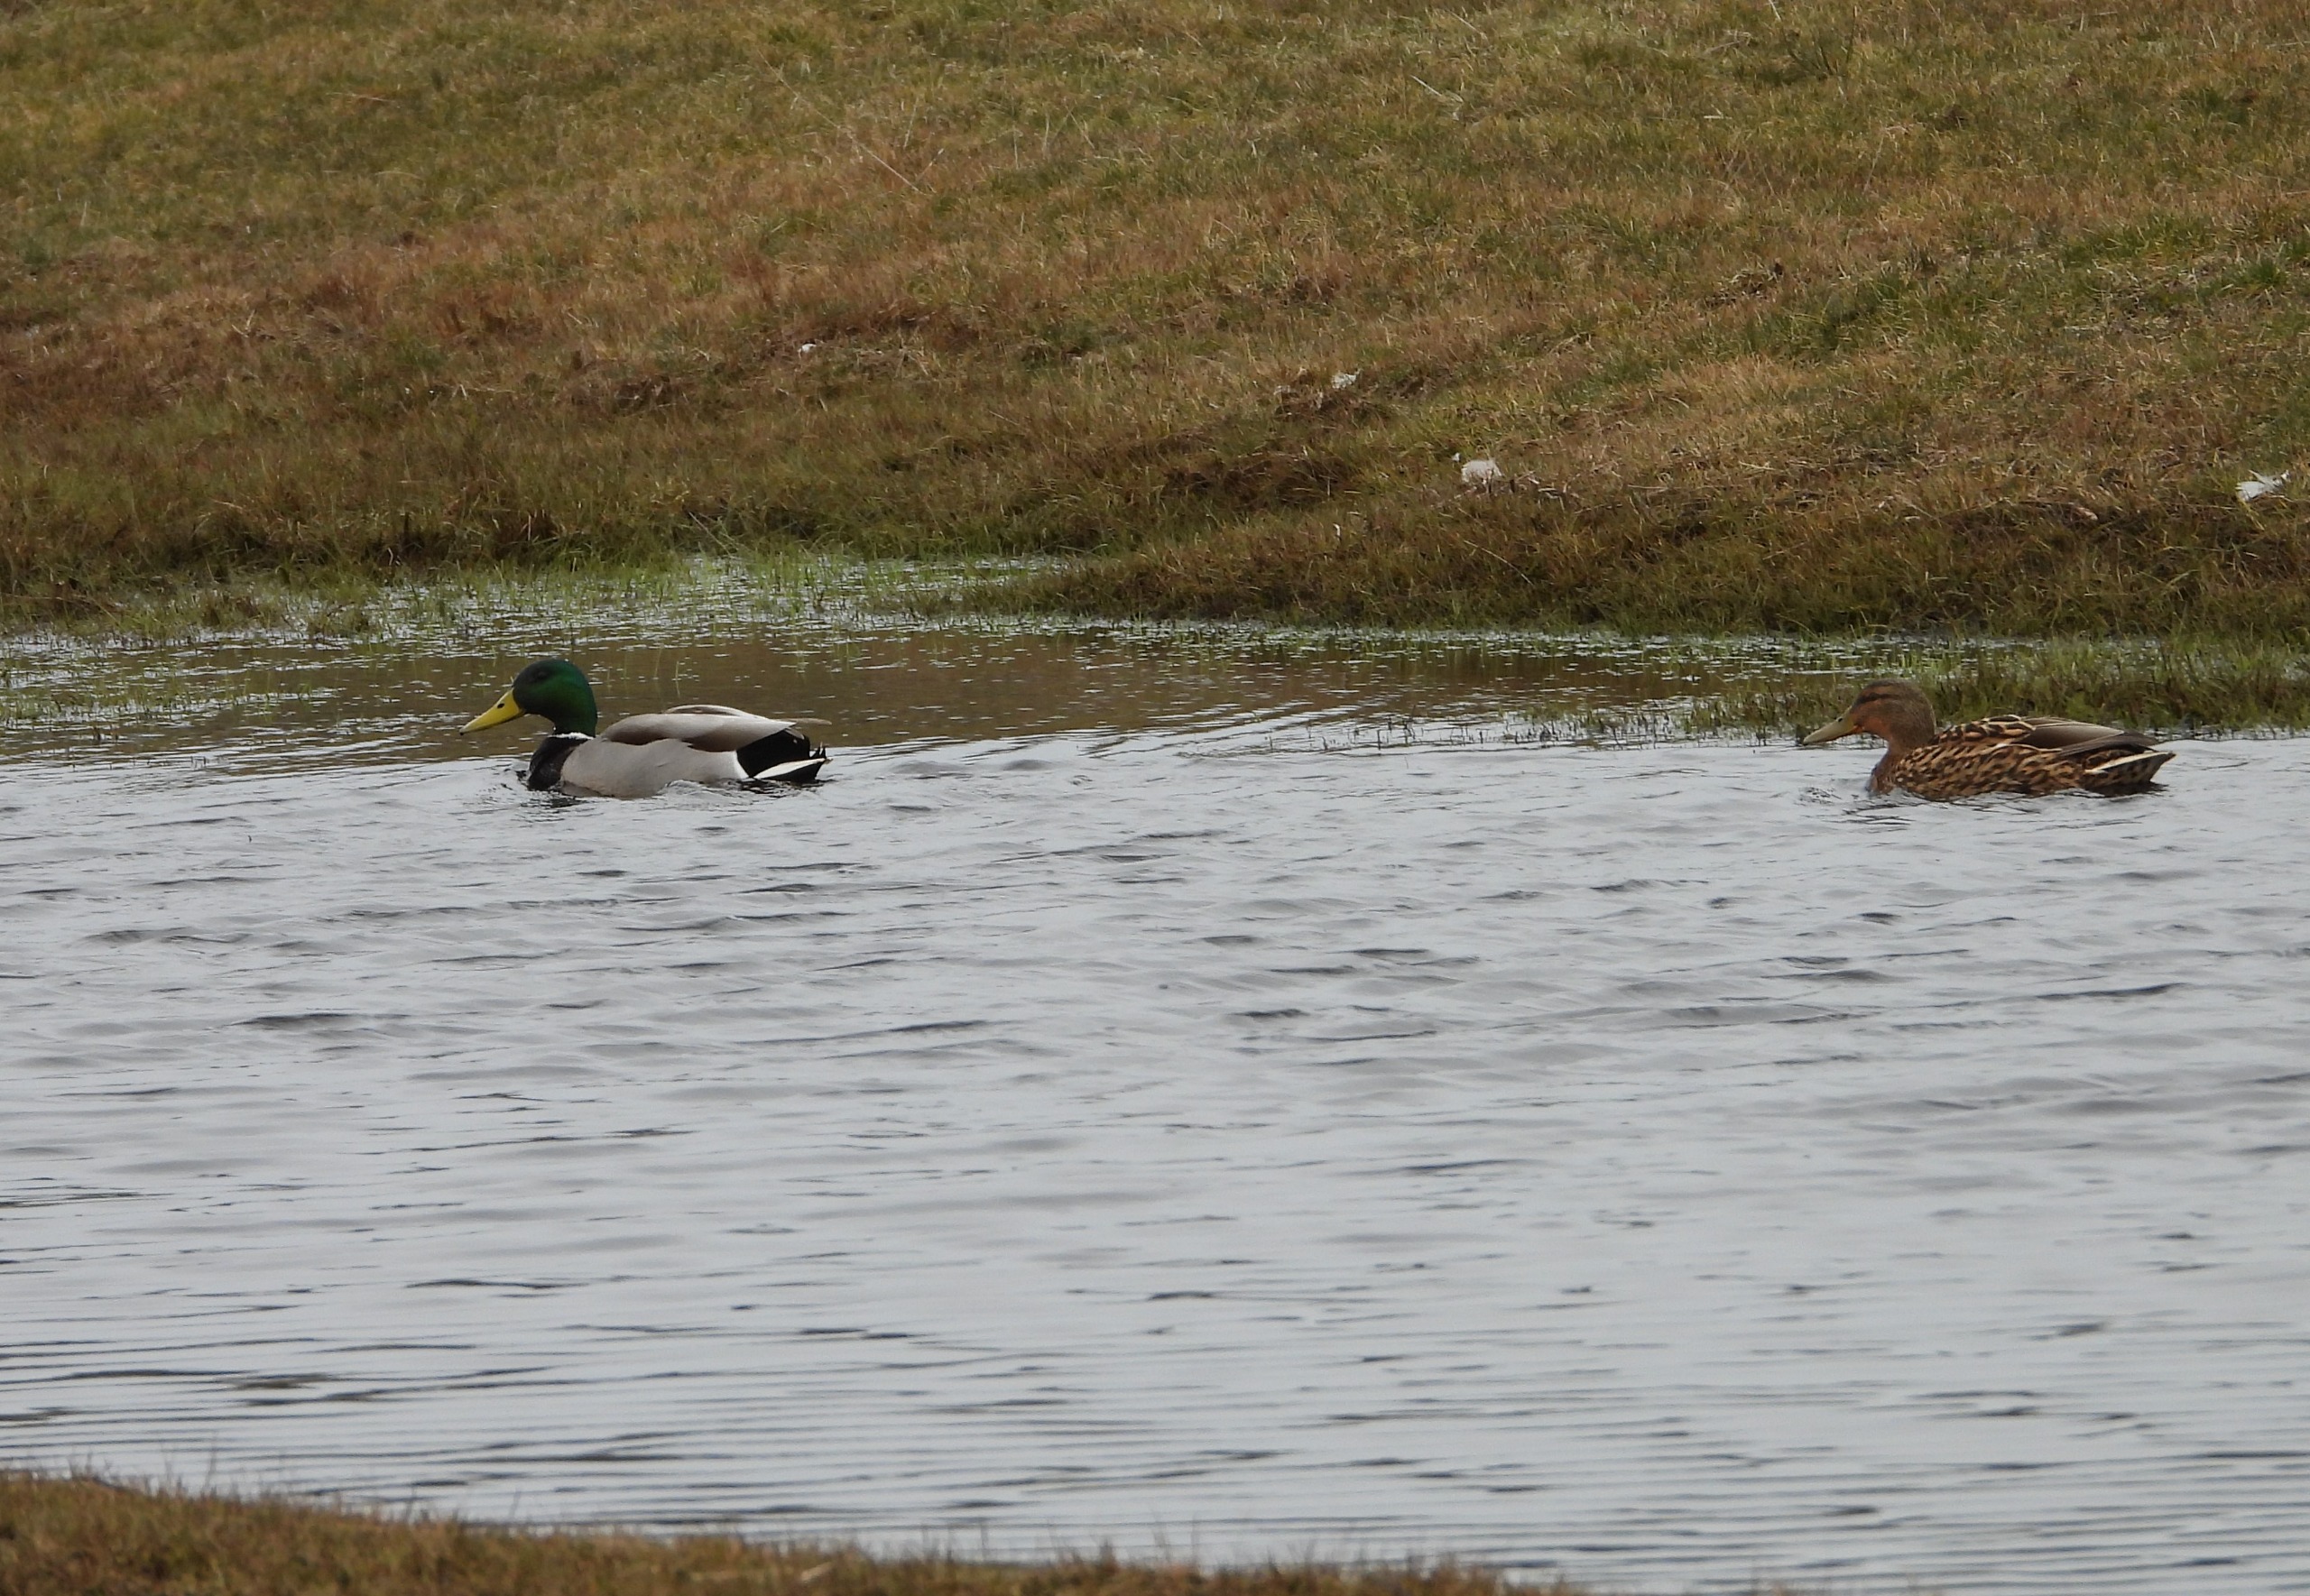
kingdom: Animalia
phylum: Chordata
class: Aves
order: Anseriformes
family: Anatidae
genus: Anas
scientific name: Anas platyrhynchos
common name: Gråand
